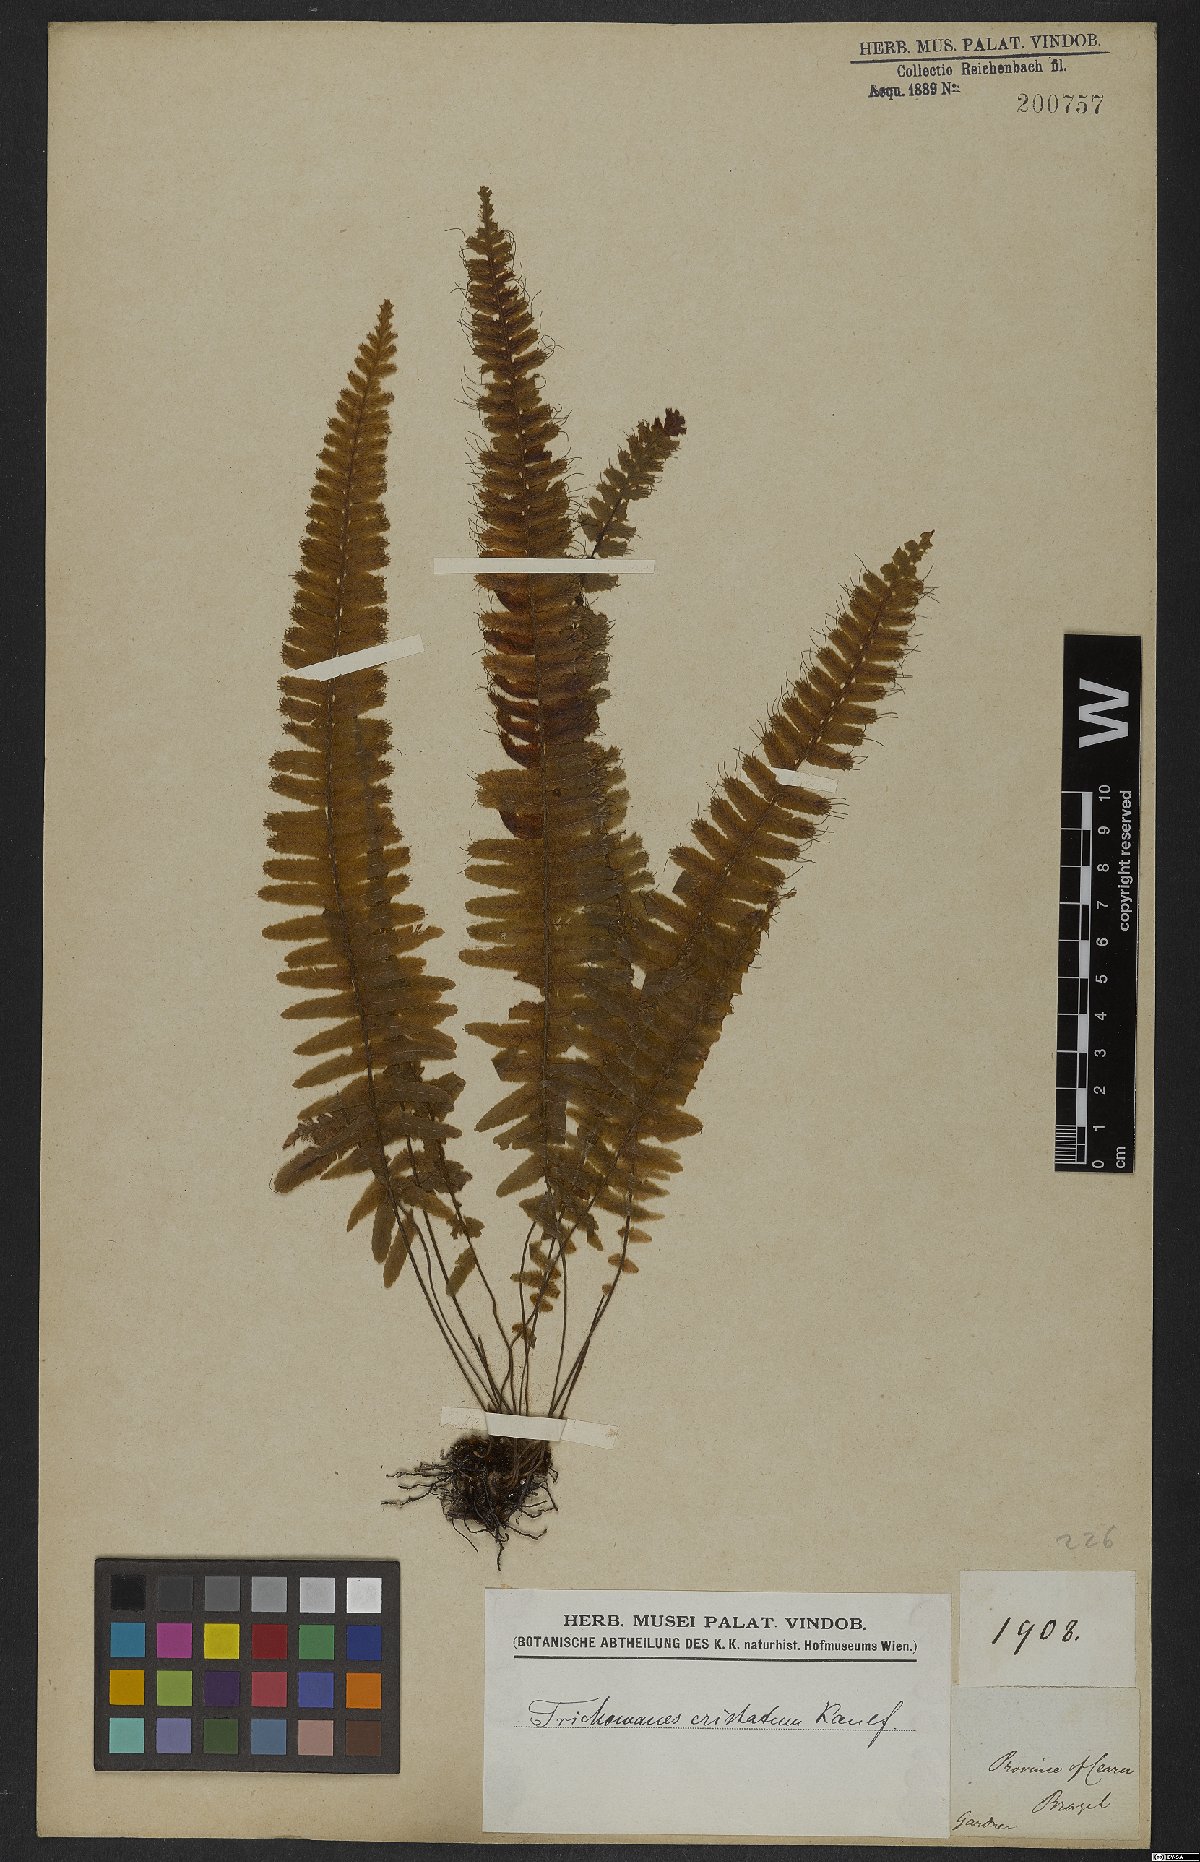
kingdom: Plantae
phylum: Tracheophyta
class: Polypodiopsida
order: Hymenophyllales
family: Hymenophyllaceae
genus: Trichomanes
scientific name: Trichomanes cristatum
